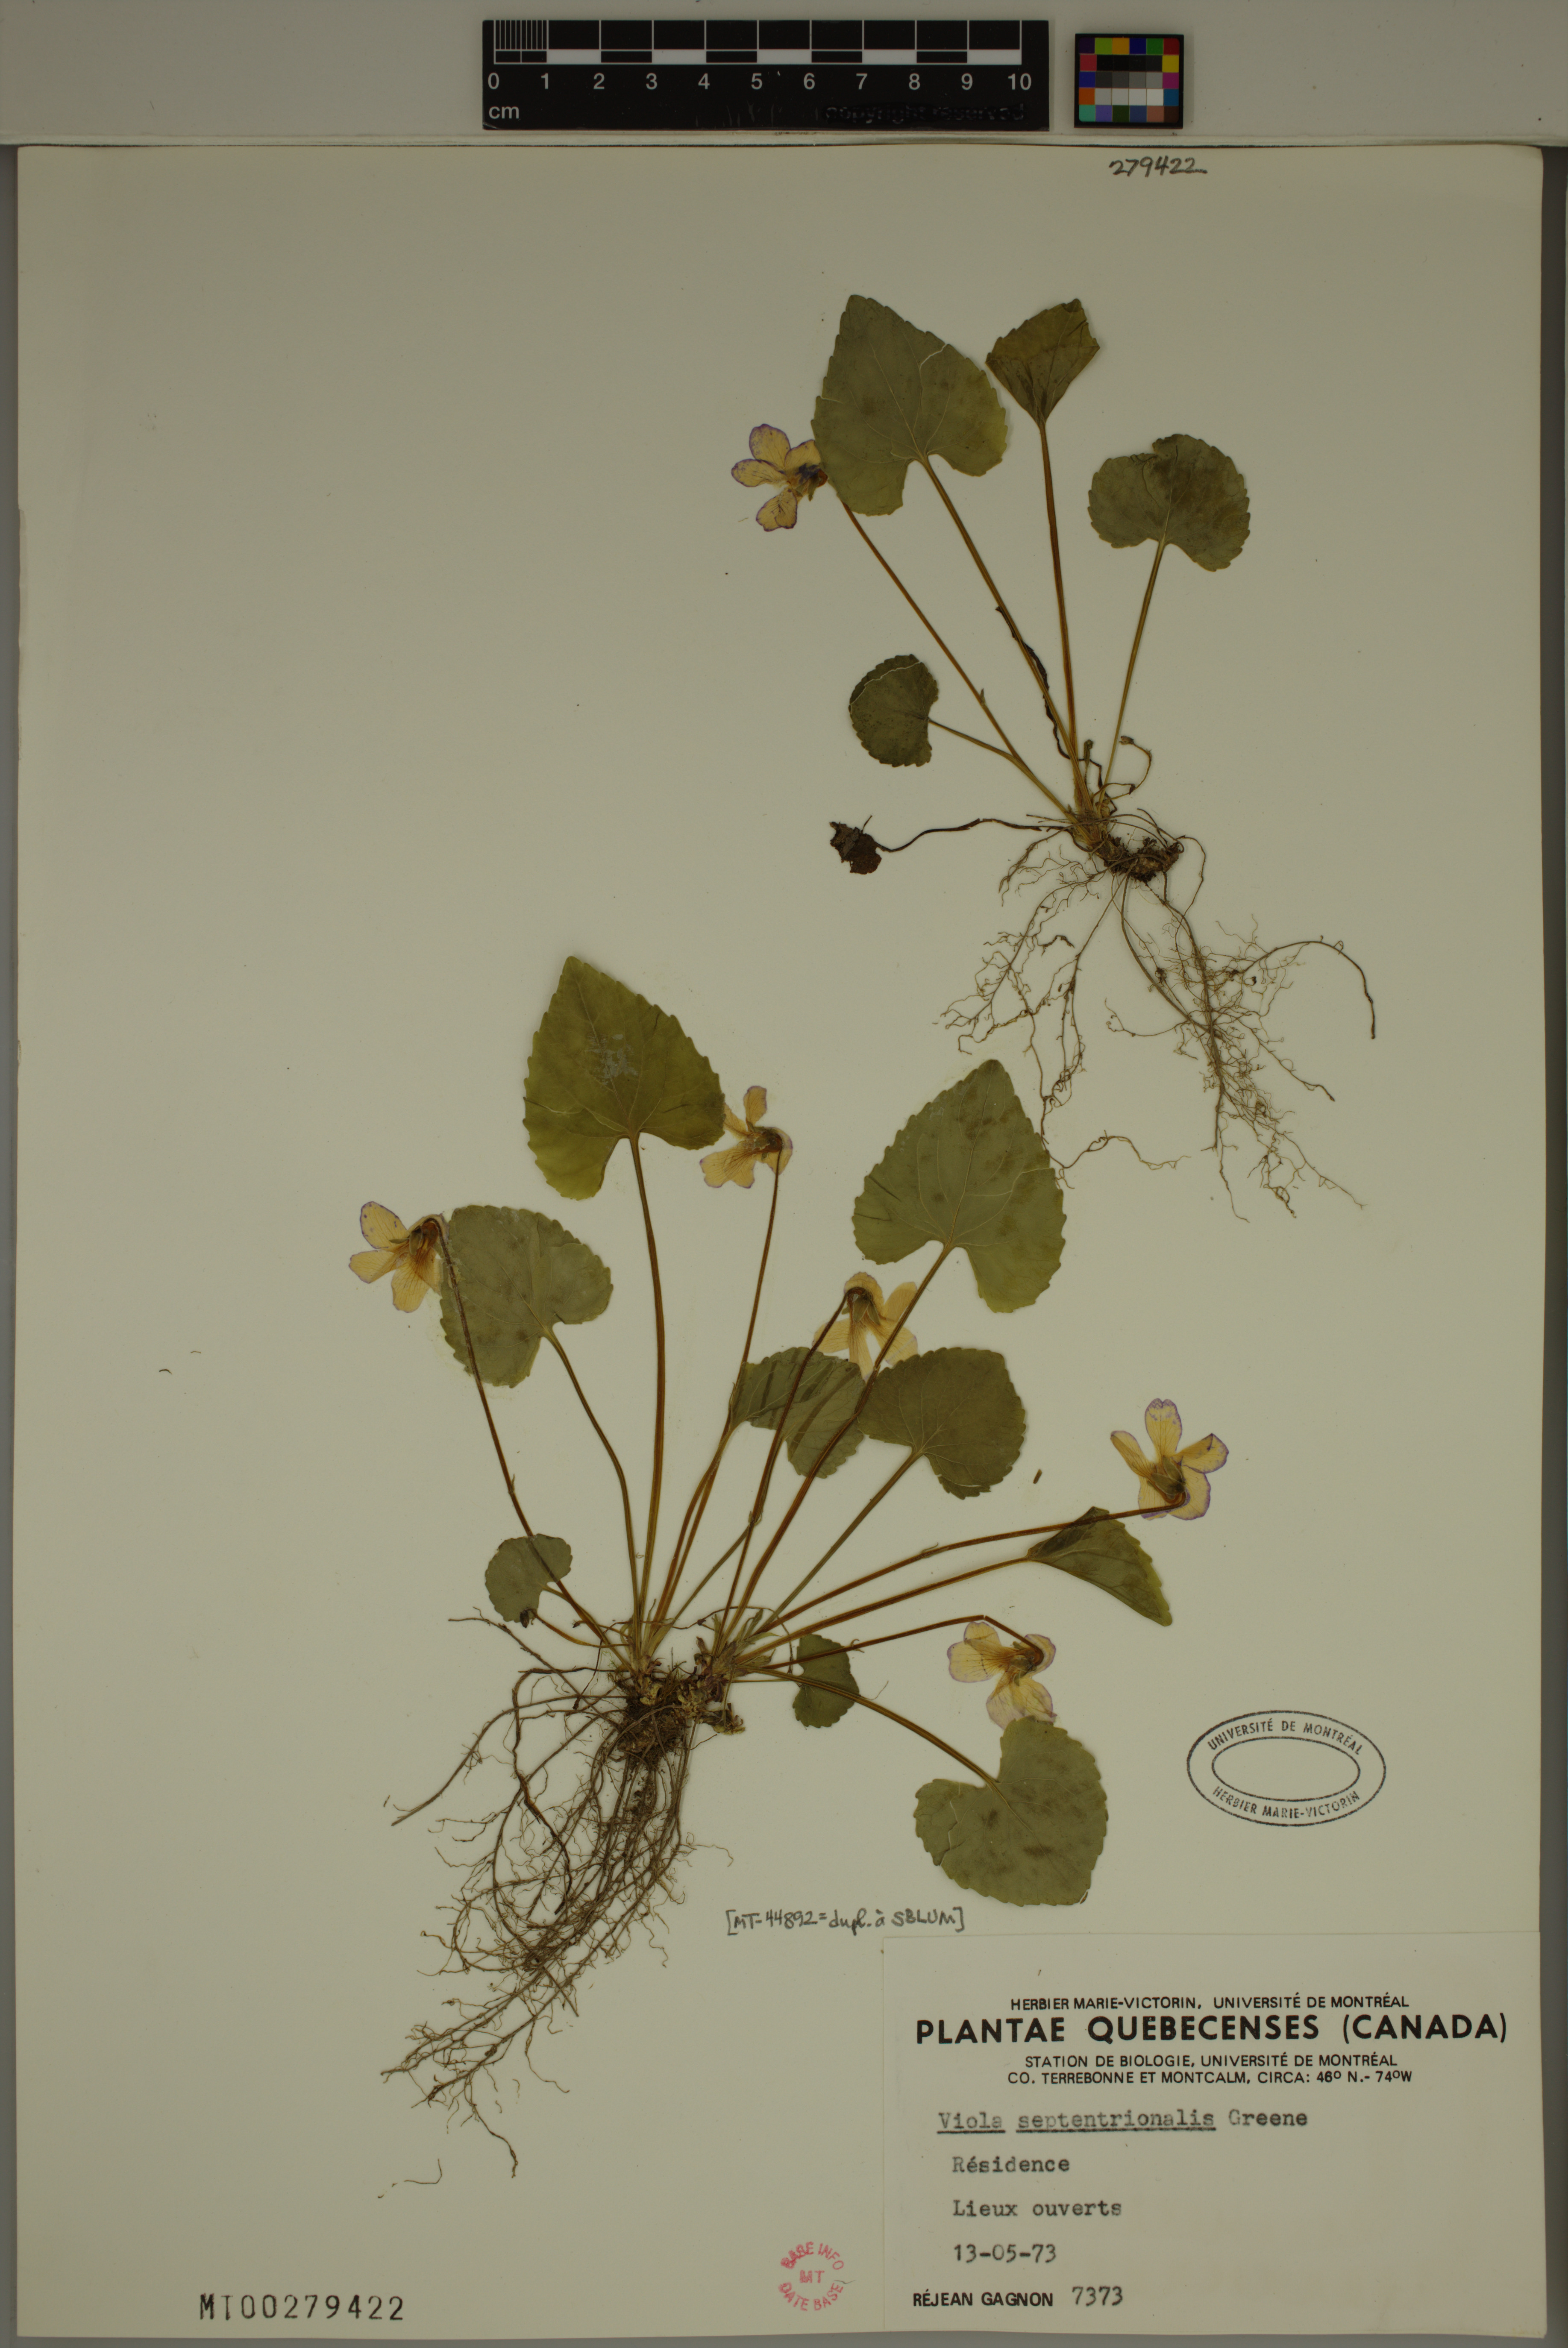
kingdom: Plantae
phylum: Tracheophyta
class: Magnoliopsida
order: Malpighiales
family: Violaceae
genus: Viola
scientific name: Viola septentrionalis
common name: Northern woodland violet
